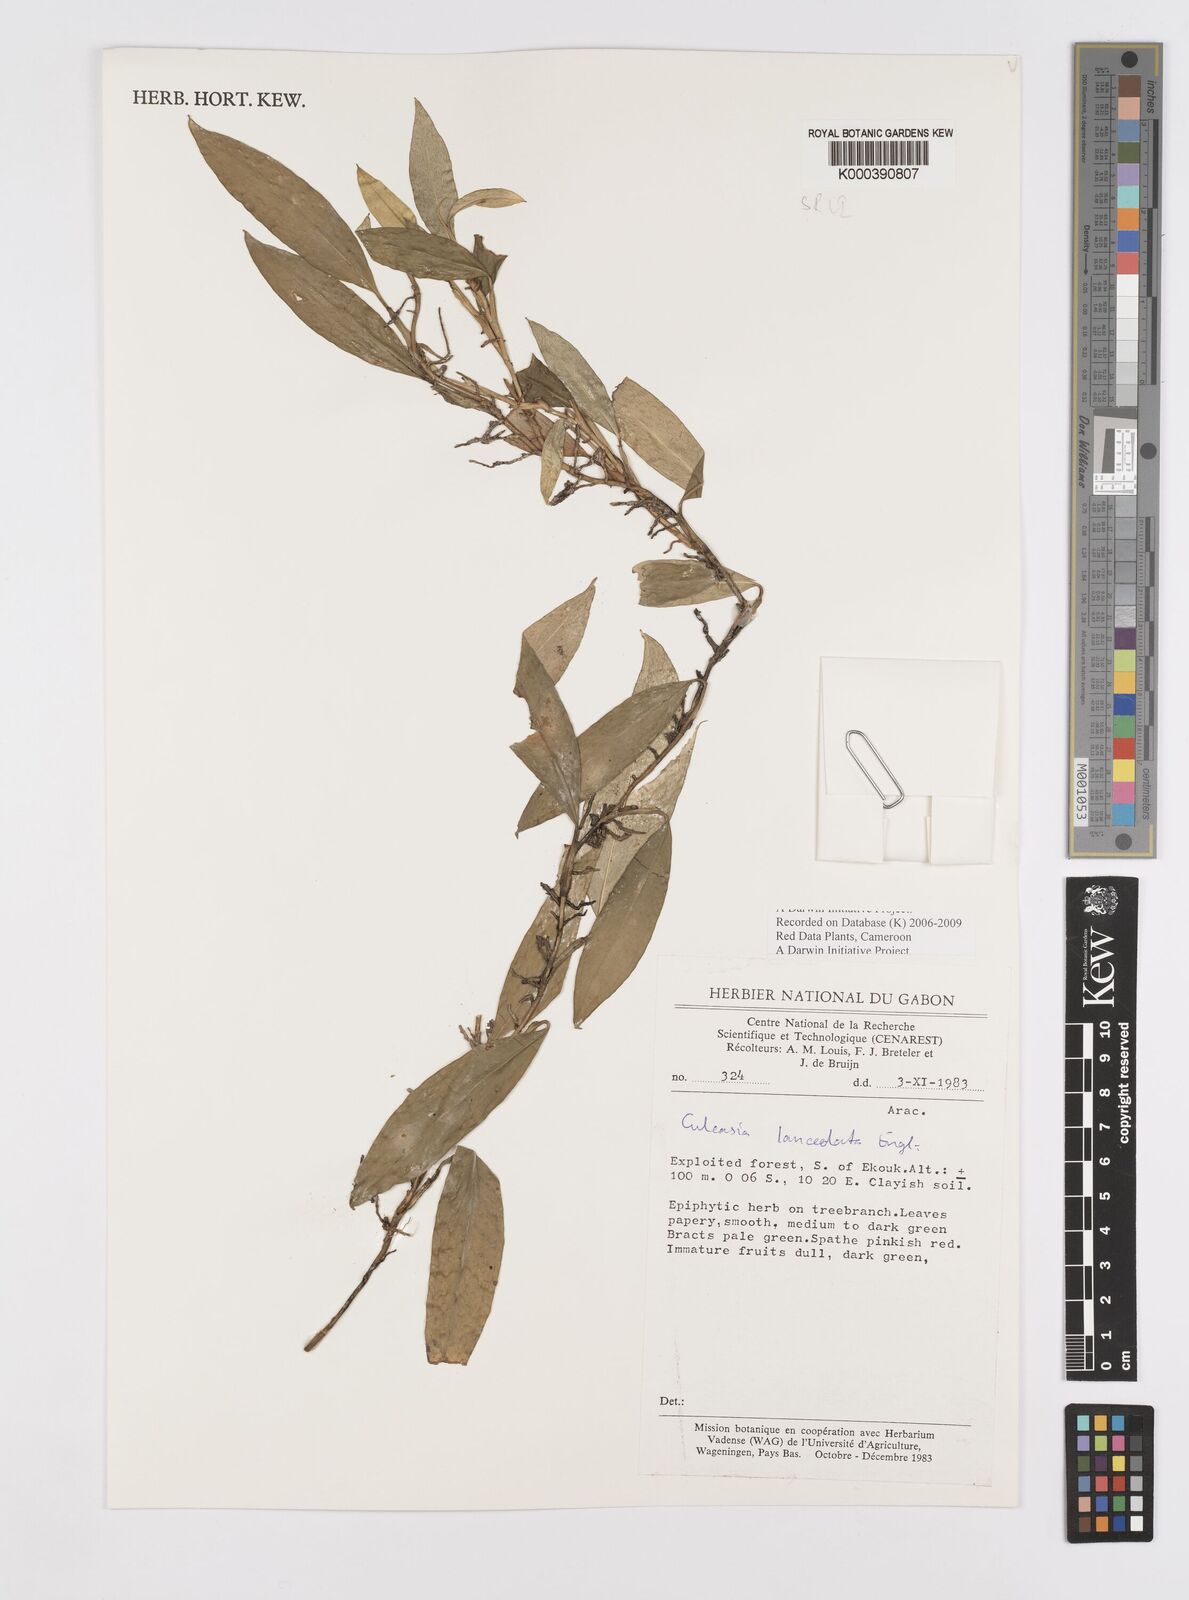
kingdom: Plantae
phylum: Tracheophyta
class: Liliopsida
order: Alismatales
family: Araceae
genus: Culcasia
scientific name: Culcasia lanceolata
